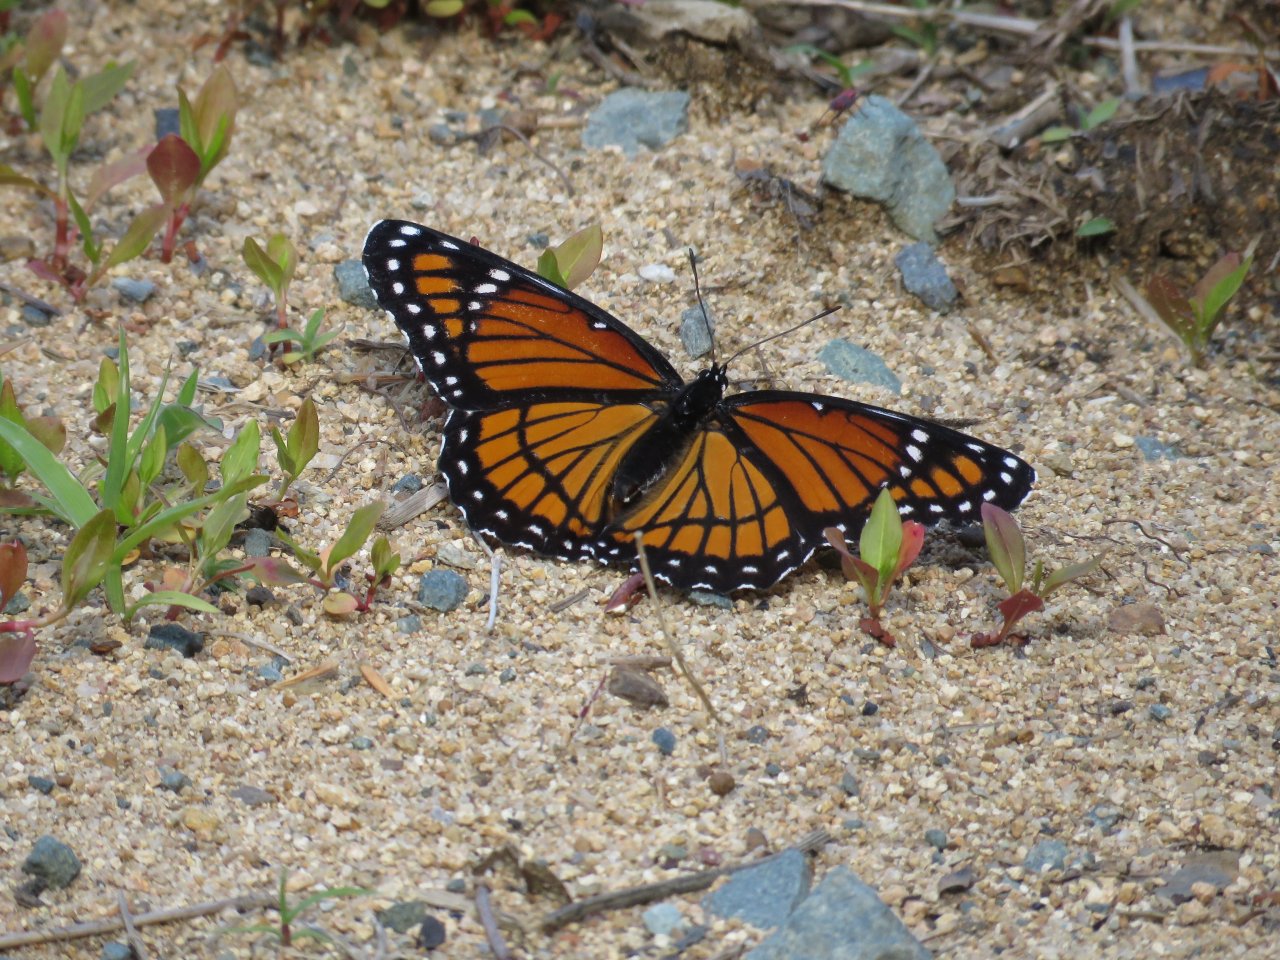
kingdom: Animalia
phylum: Arthropoda
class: Insecta
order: Lepidoptera
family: Nymphalidae
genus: Limenitis
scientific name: Limenitis archippus
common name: Viceroy
